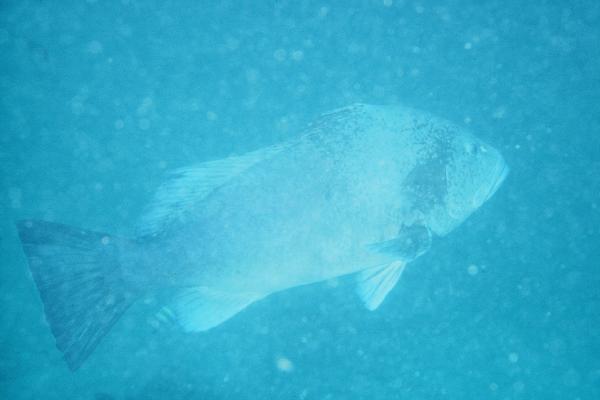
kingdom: Animalia
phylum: Chordata
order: Perciformes
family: Serranidae
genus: Epinephelus
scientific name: Epinephelus multinotatus
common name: Rankin's cod
